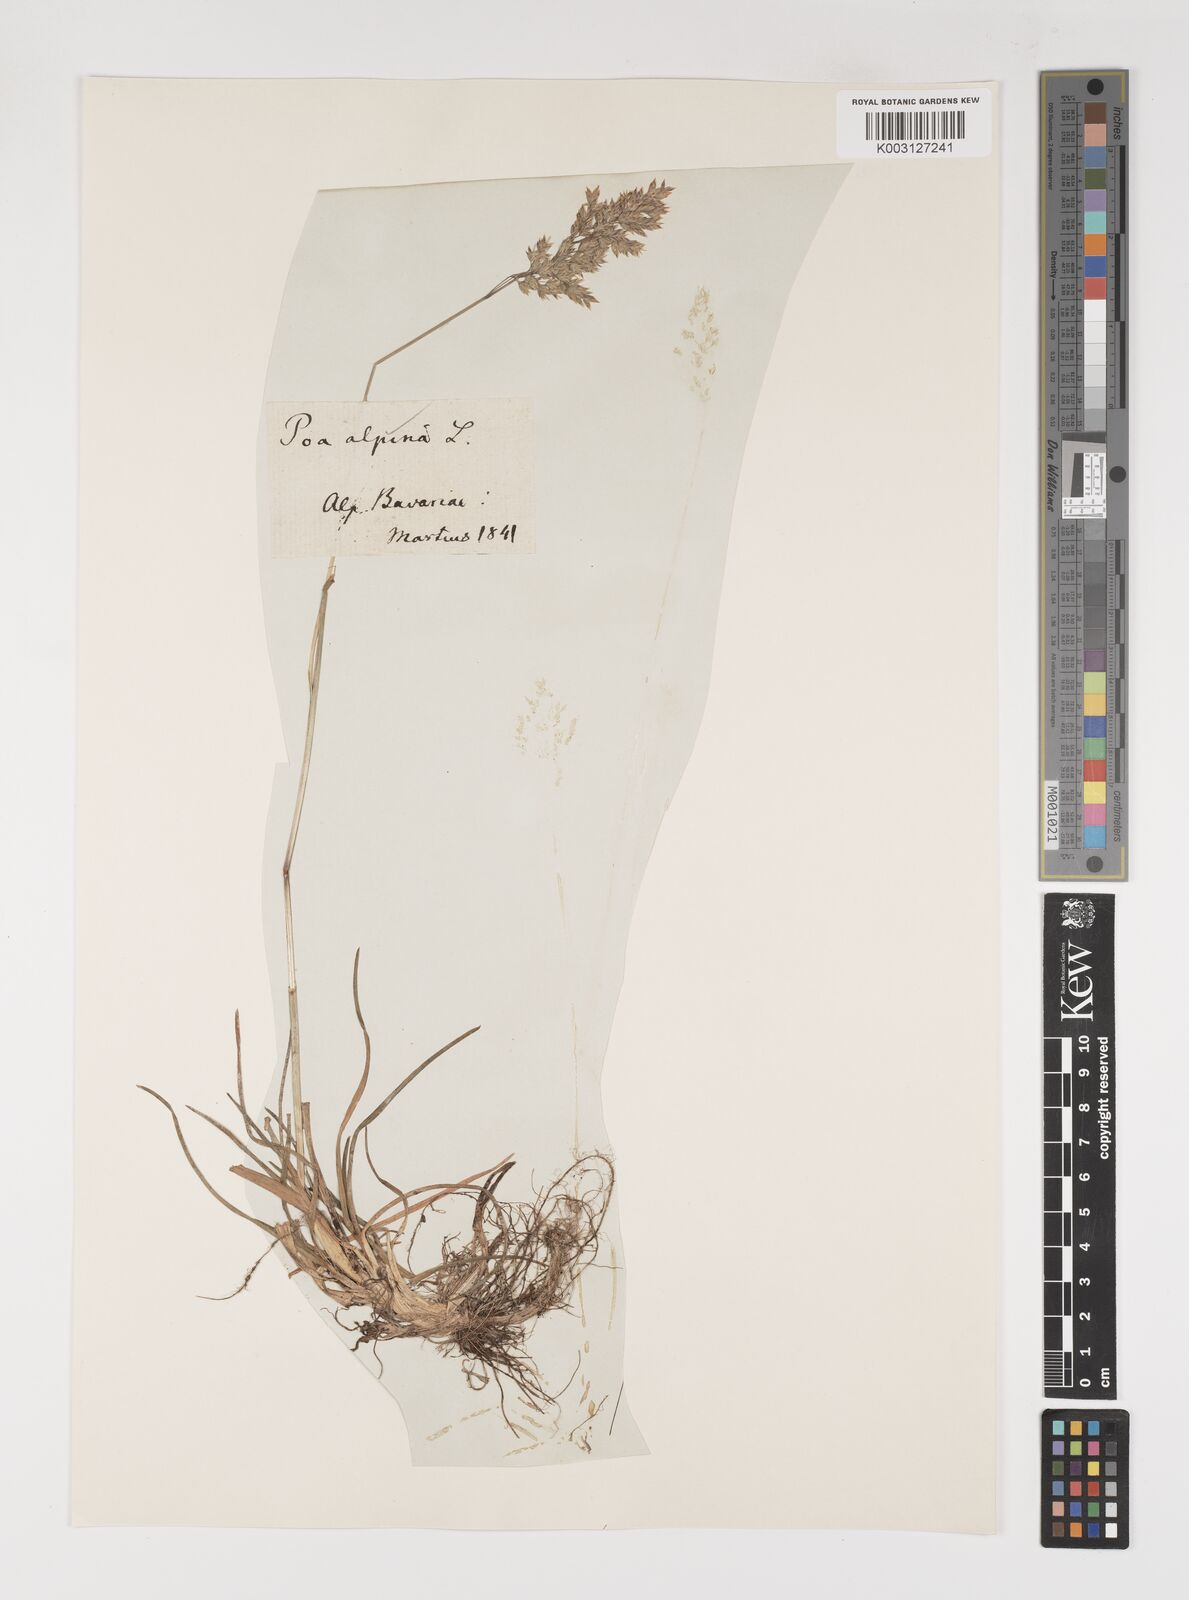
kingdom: Plantae
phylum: Tracheophyta
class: Liliopsida
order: Poales
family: Poaceae
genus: Poa
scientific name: Poa alpina
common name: Alpine bluegrass
